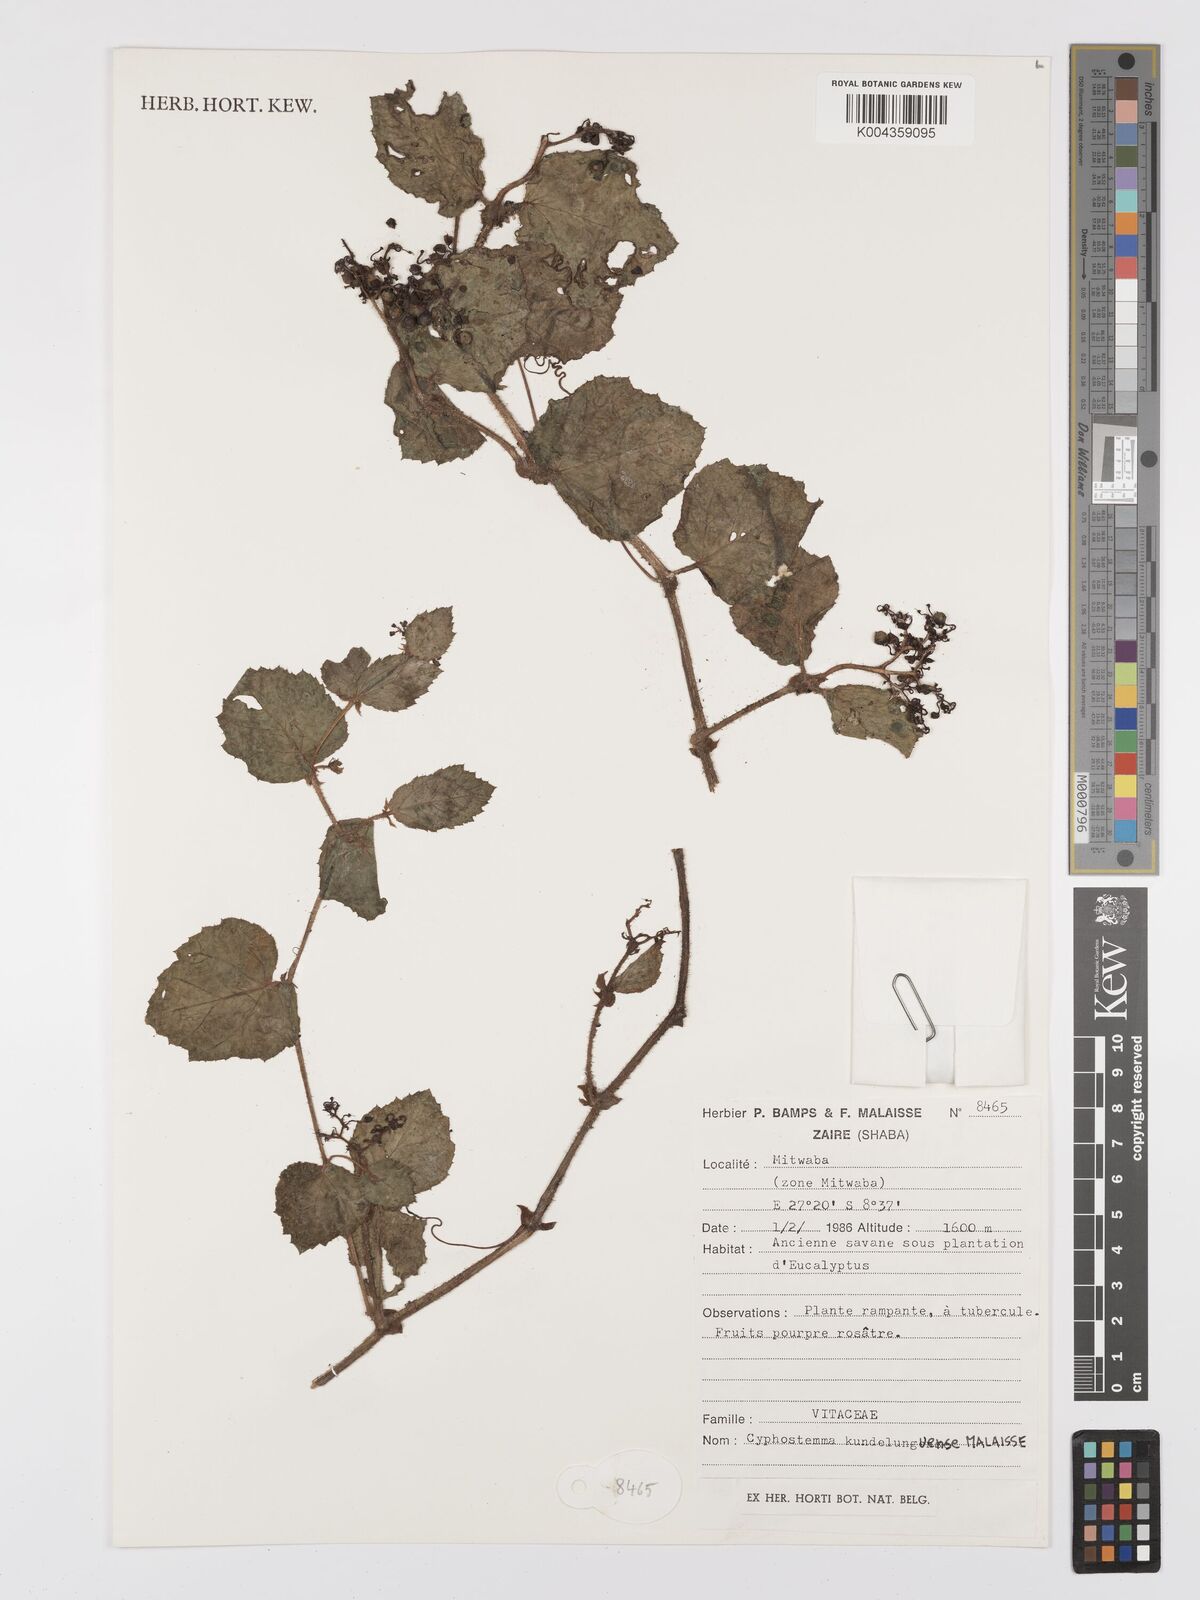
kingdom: Plantae
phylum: Tracheophyta
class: Magnoliopsida
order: Vitales
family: Vitaceae
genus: Cyphostemma
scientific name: Cyphostemma kundelunguense
